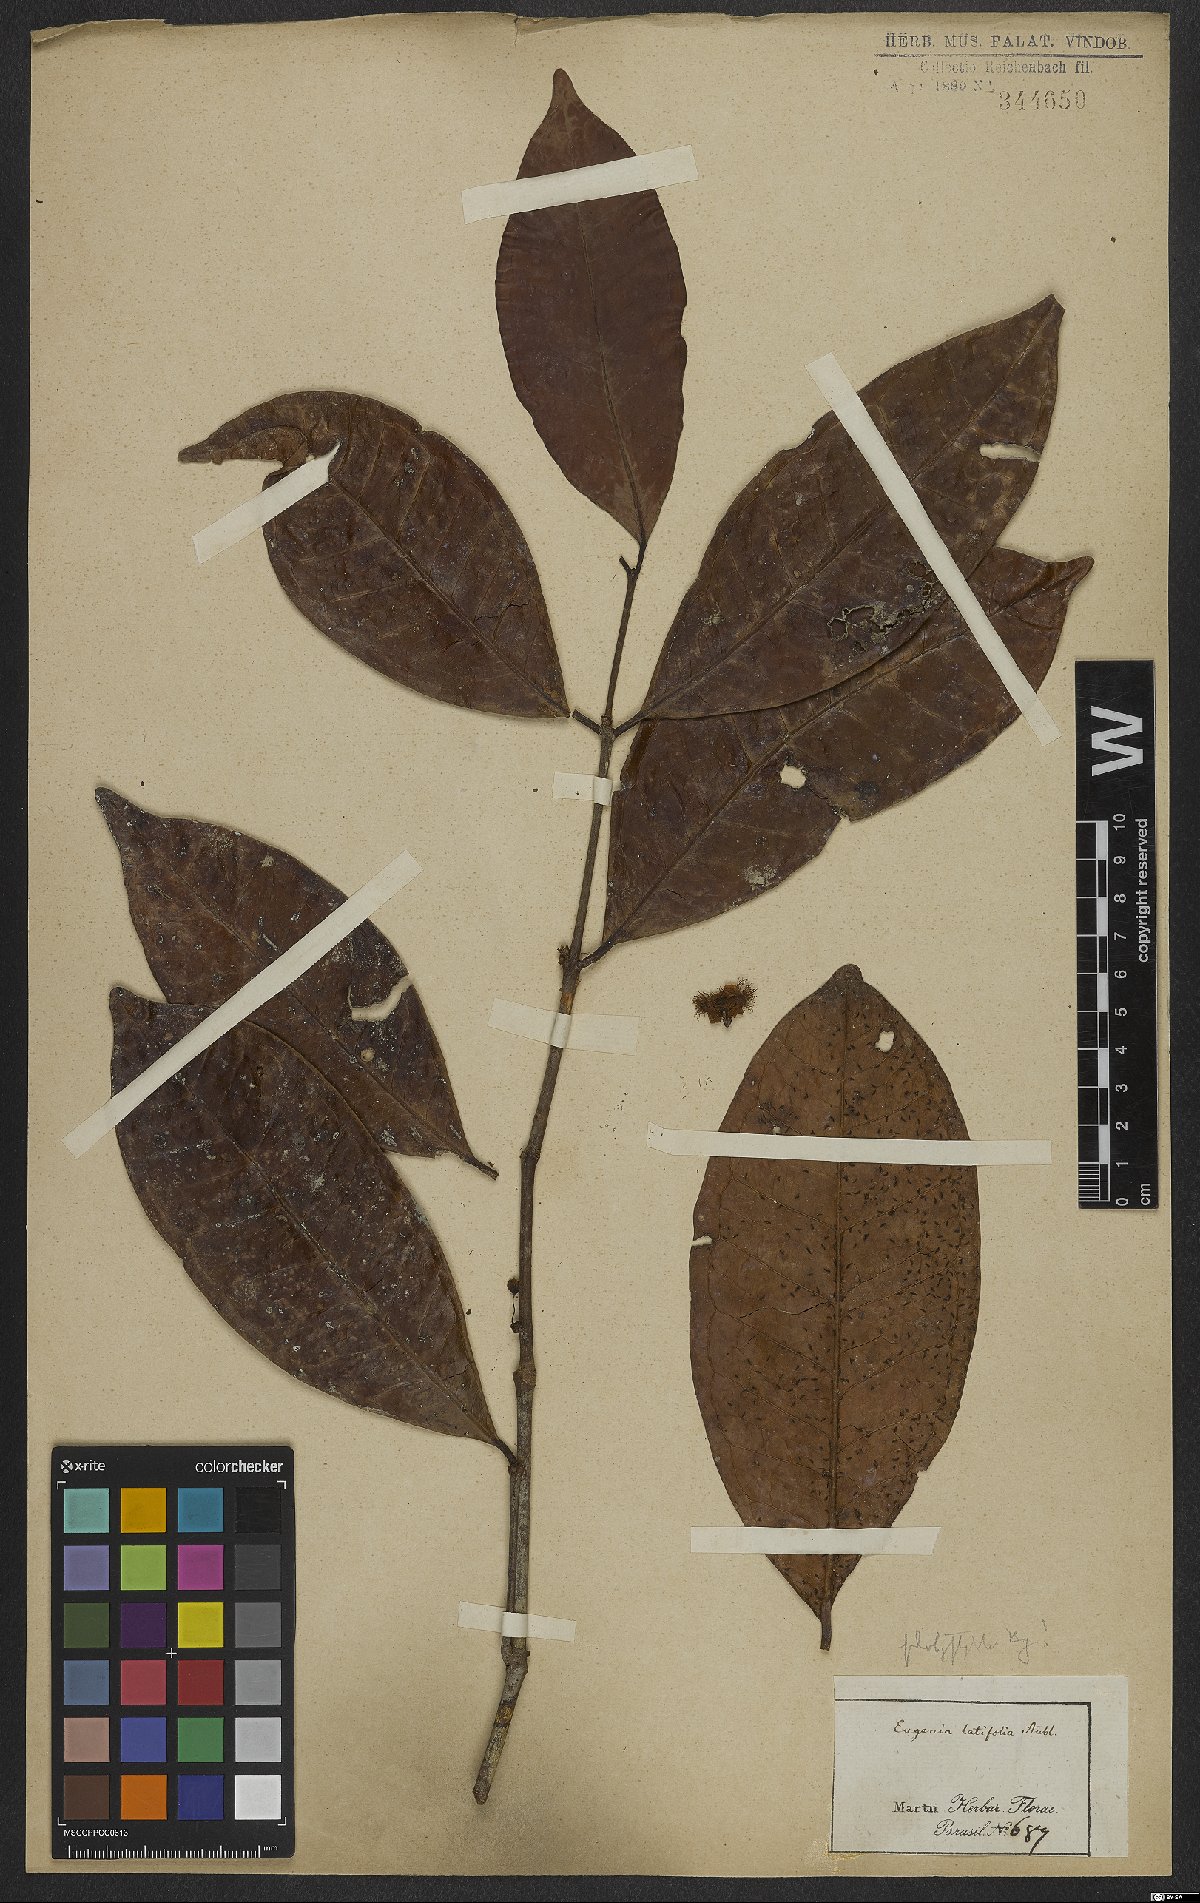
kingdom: Plantae
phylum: Tracheophyta
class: Magnoliopsida
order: Myrtales
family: Myrtaceae
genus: Eugenia
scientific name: Eugenia platyphylla
